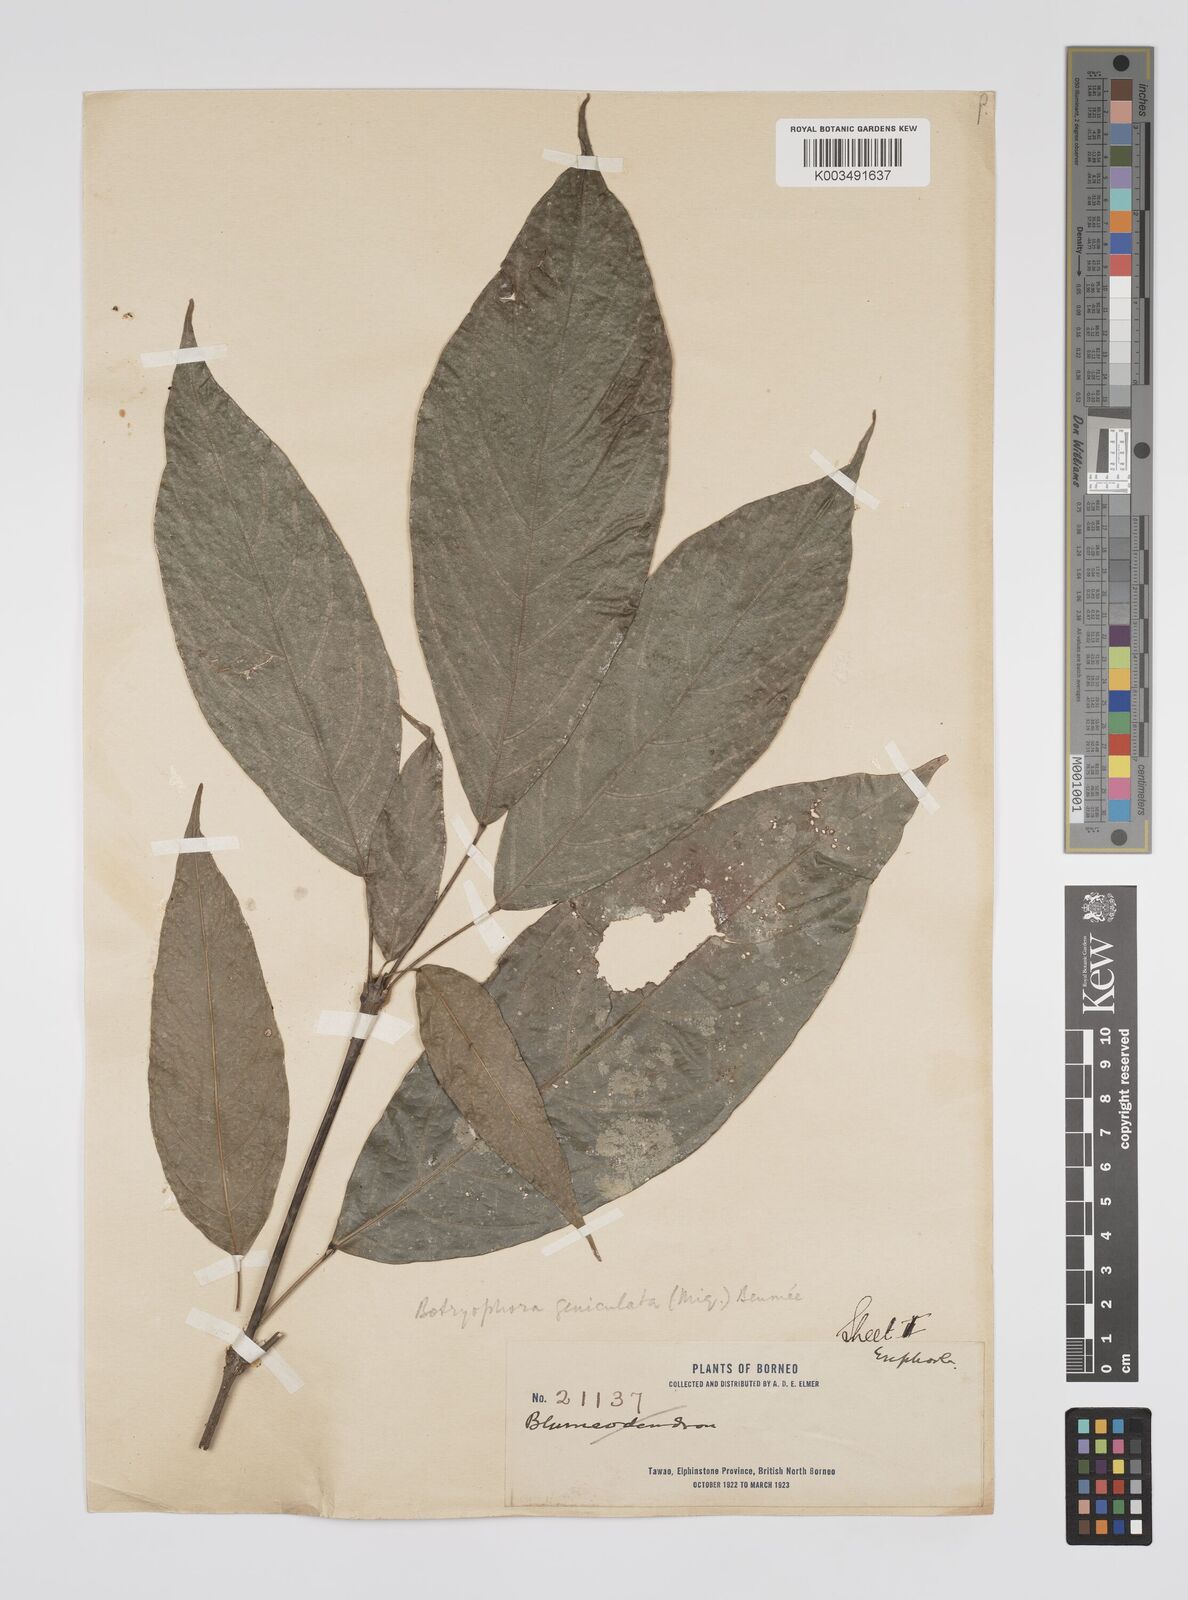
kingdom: Plantae
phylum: Tracheophyta
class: Magnoliopsida
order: Malpighiales
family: Euphorbiaceae
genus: Botryophora
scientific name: Botryophora geniculata
